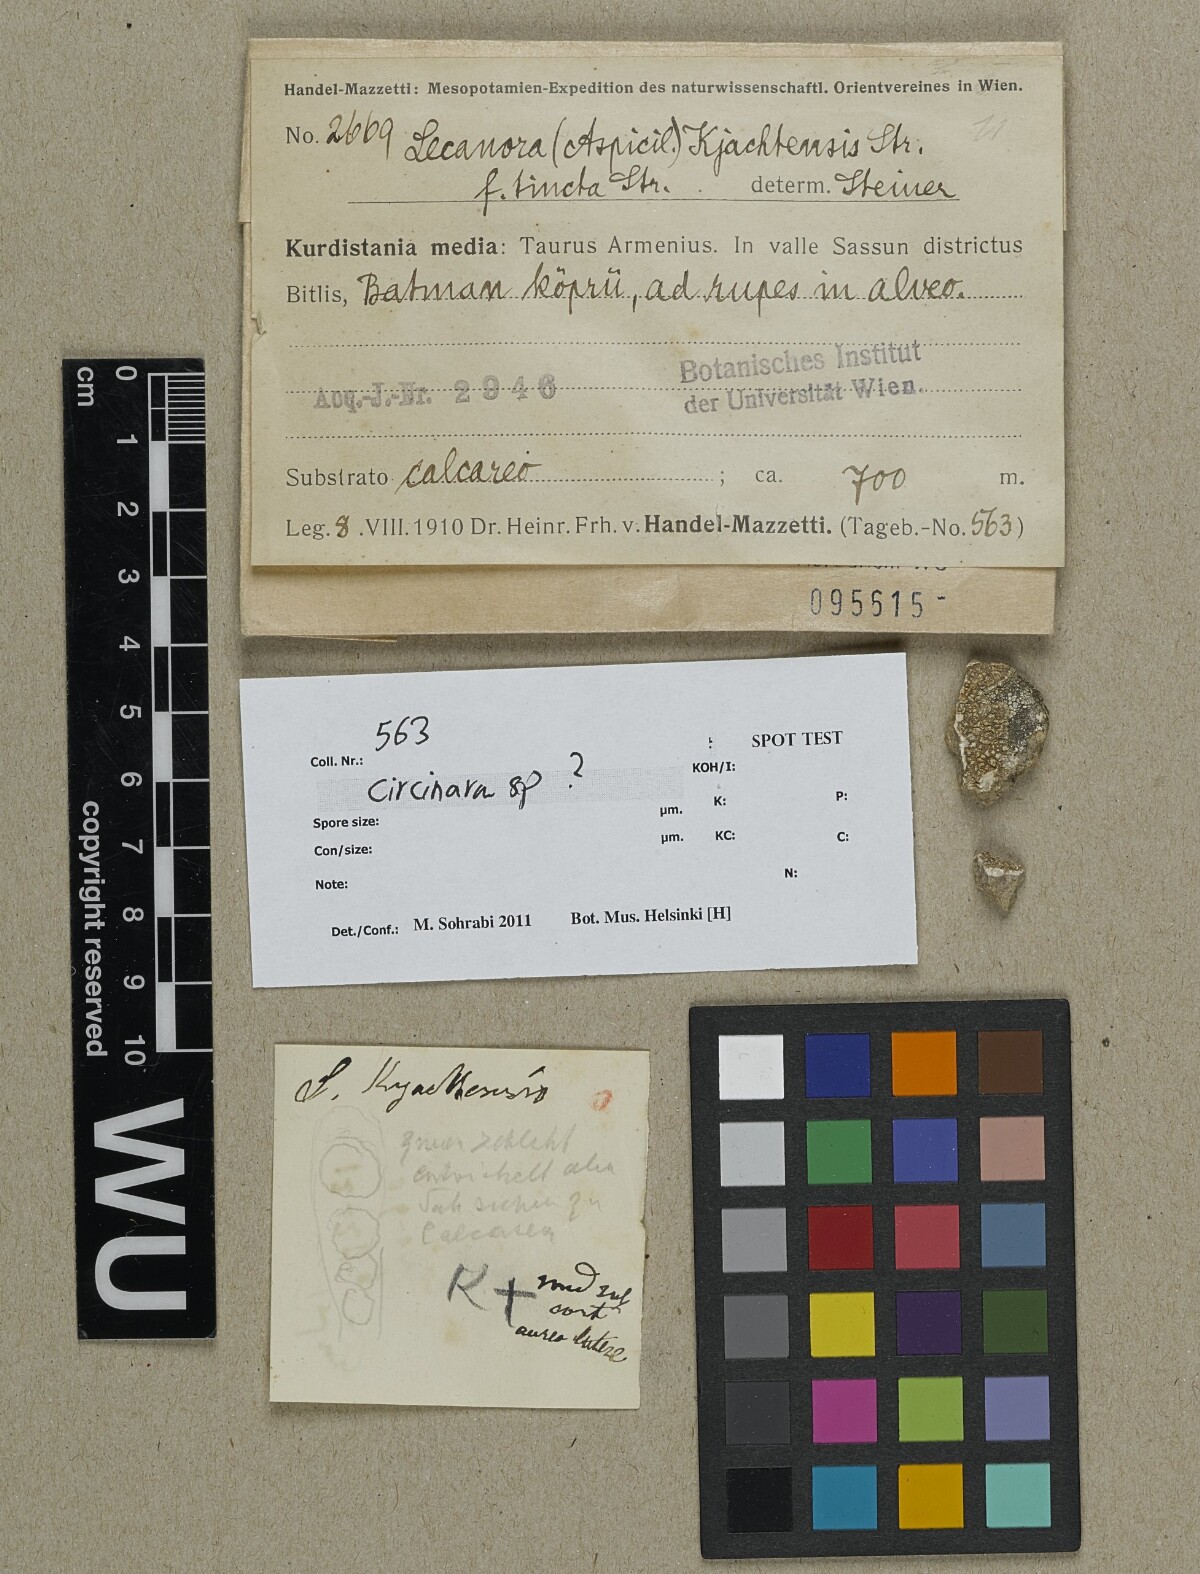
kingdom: Fungi
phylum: Ascomycota
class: Lecanoromycetes
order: Pertusariales
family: Megasporaceae
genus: Circinaria
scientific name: Circinaria
